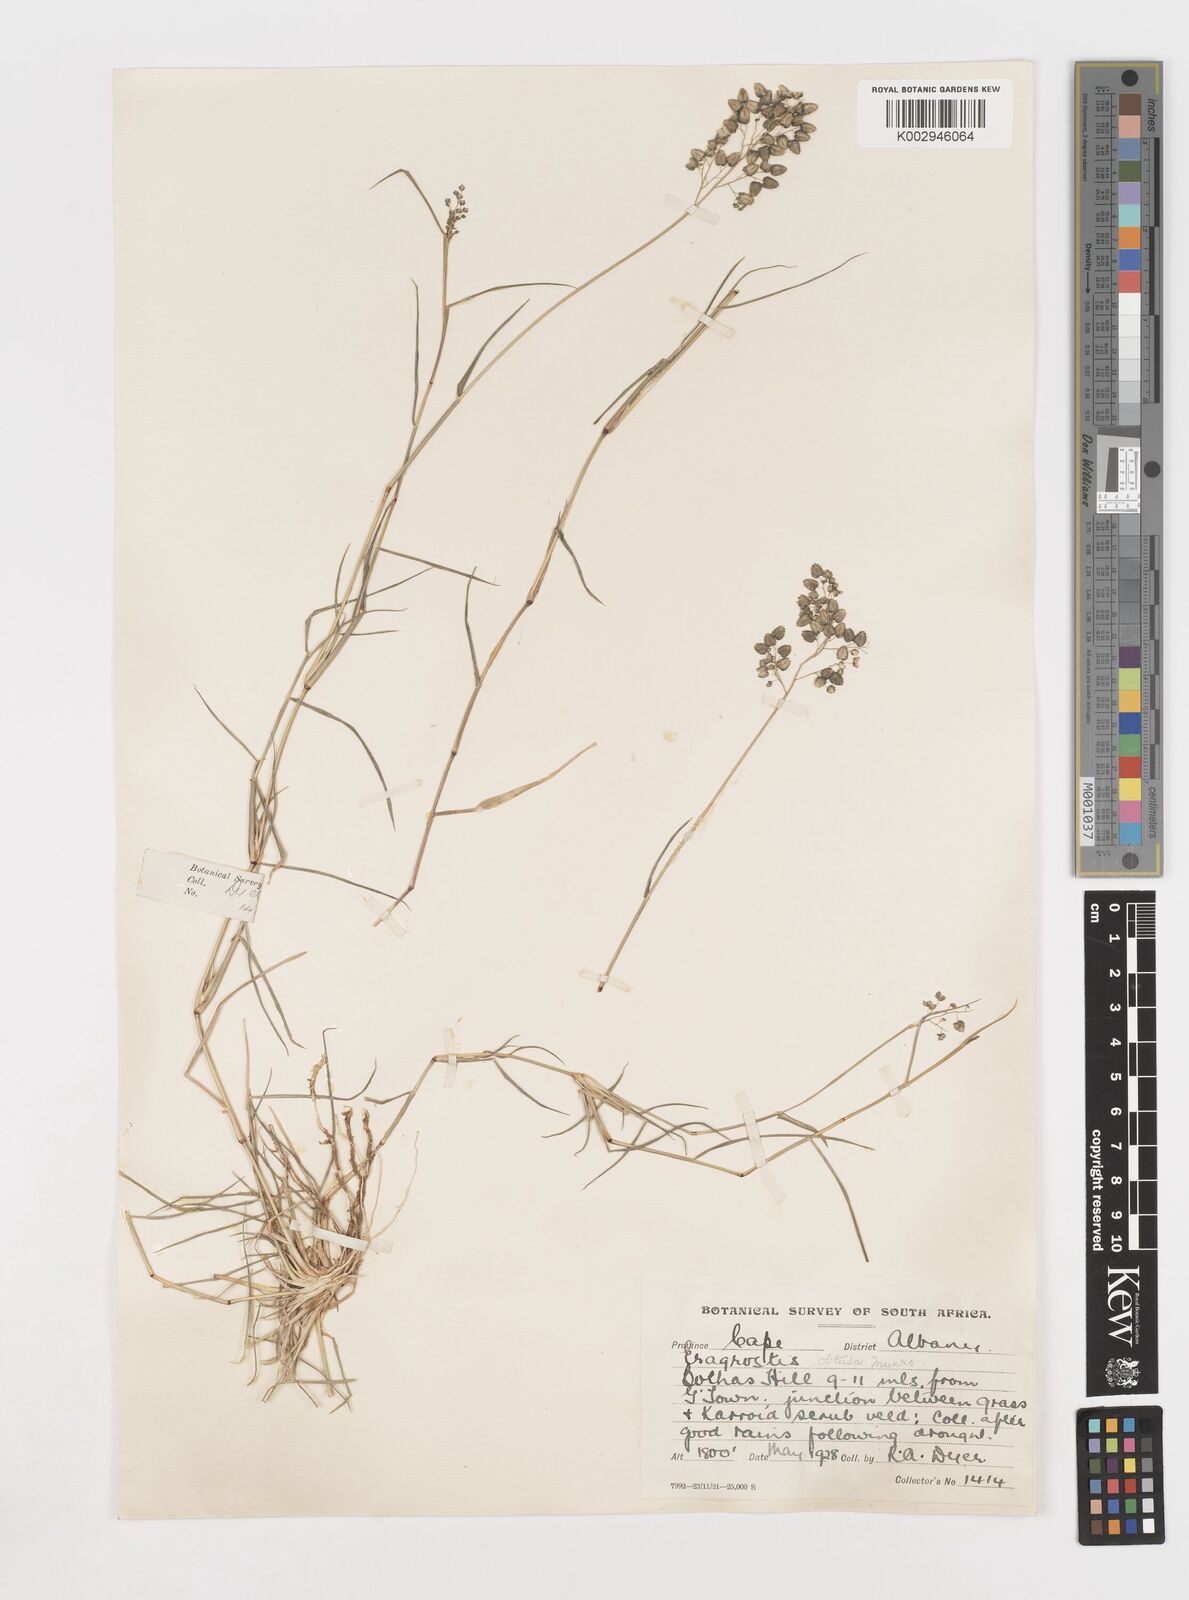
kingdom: Plantae
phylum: Tracheophyta
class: Liliopsida
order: Poales
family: Poaceae
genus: Eragrostis
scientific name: Eragrostis obtusa
